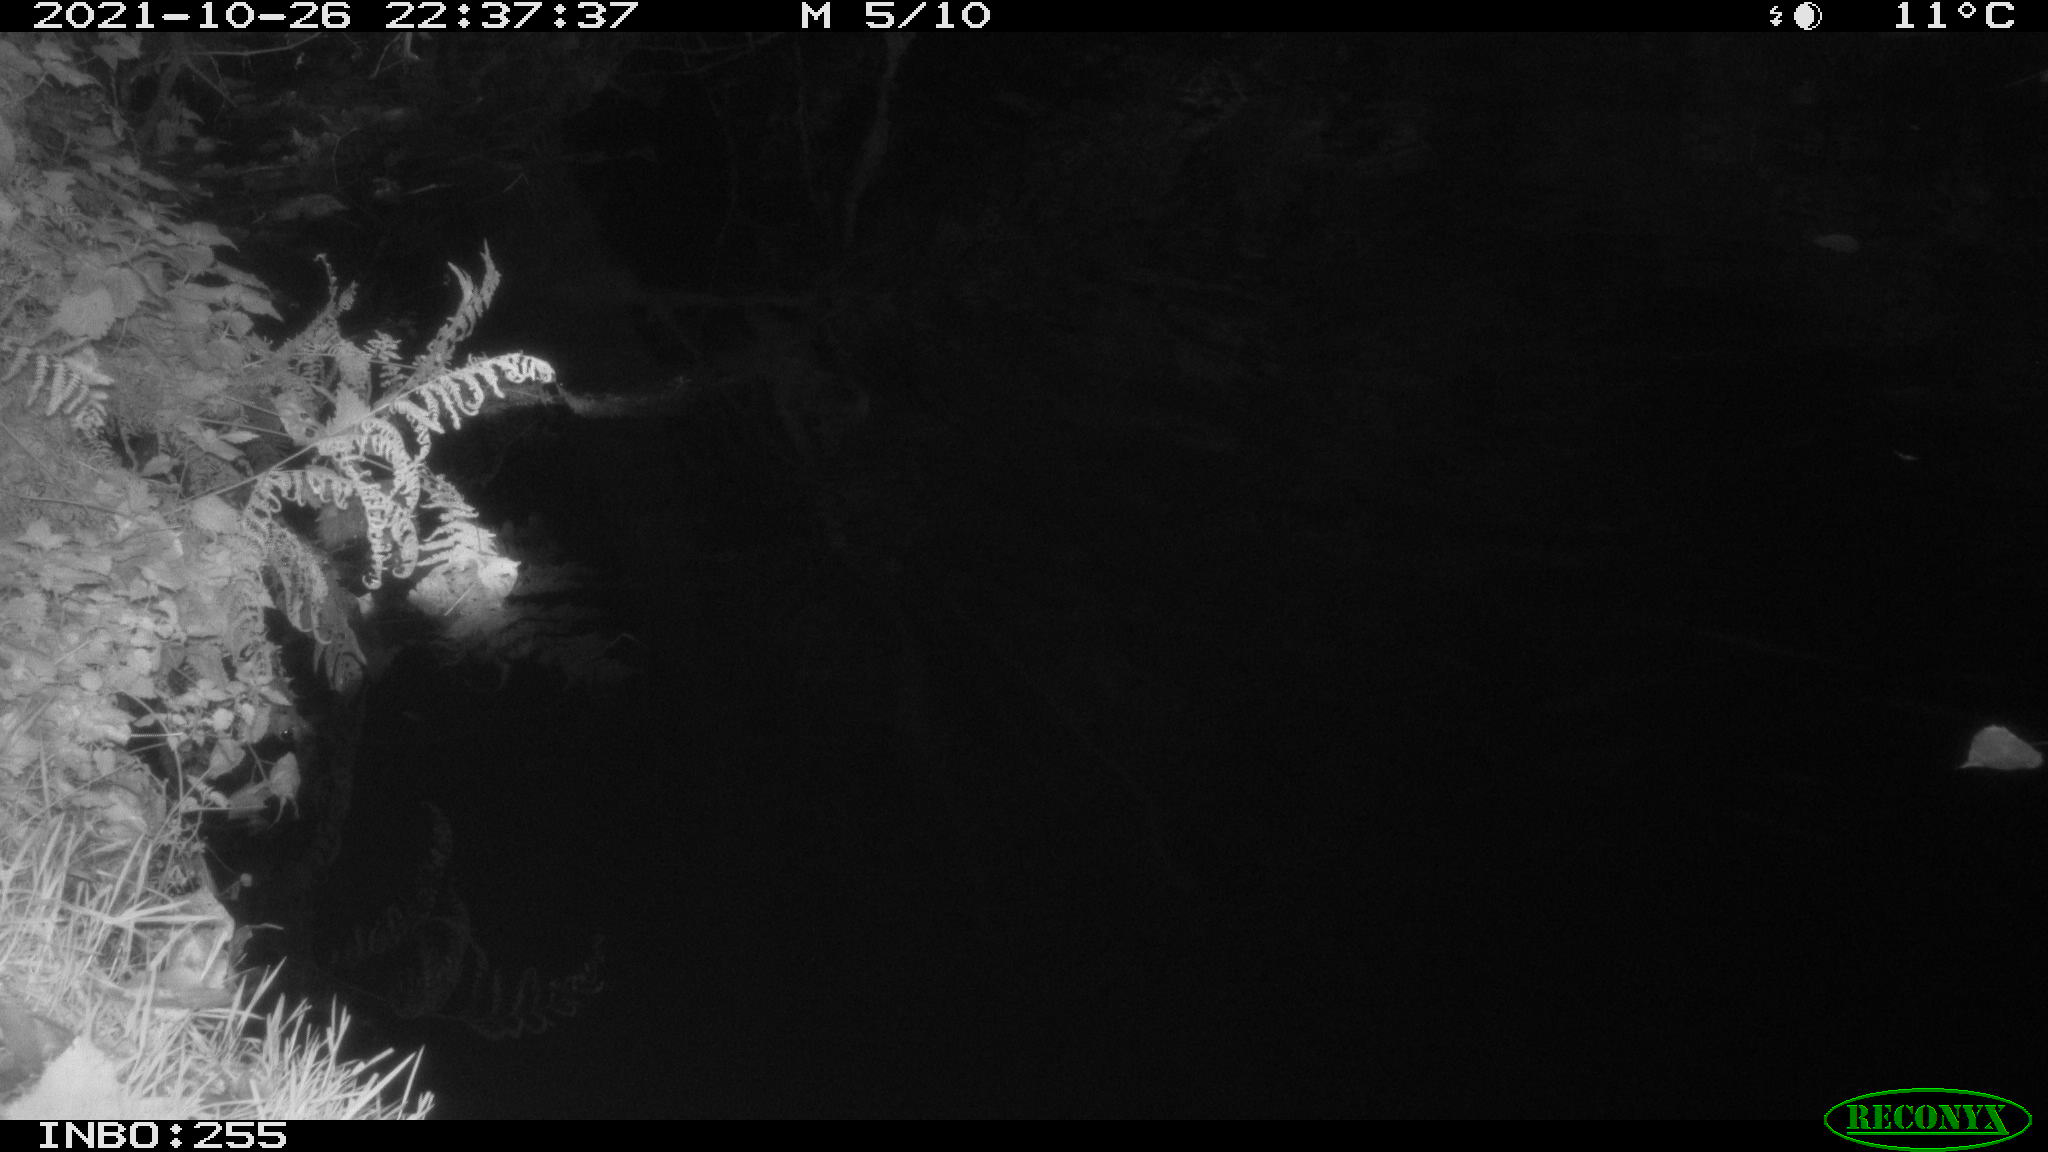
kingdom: Animalia
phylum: Chordata
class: Aves
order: Anseriformes
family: Anatidae
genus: Anas
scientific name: Anas platyrhynchos
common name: Mallard
